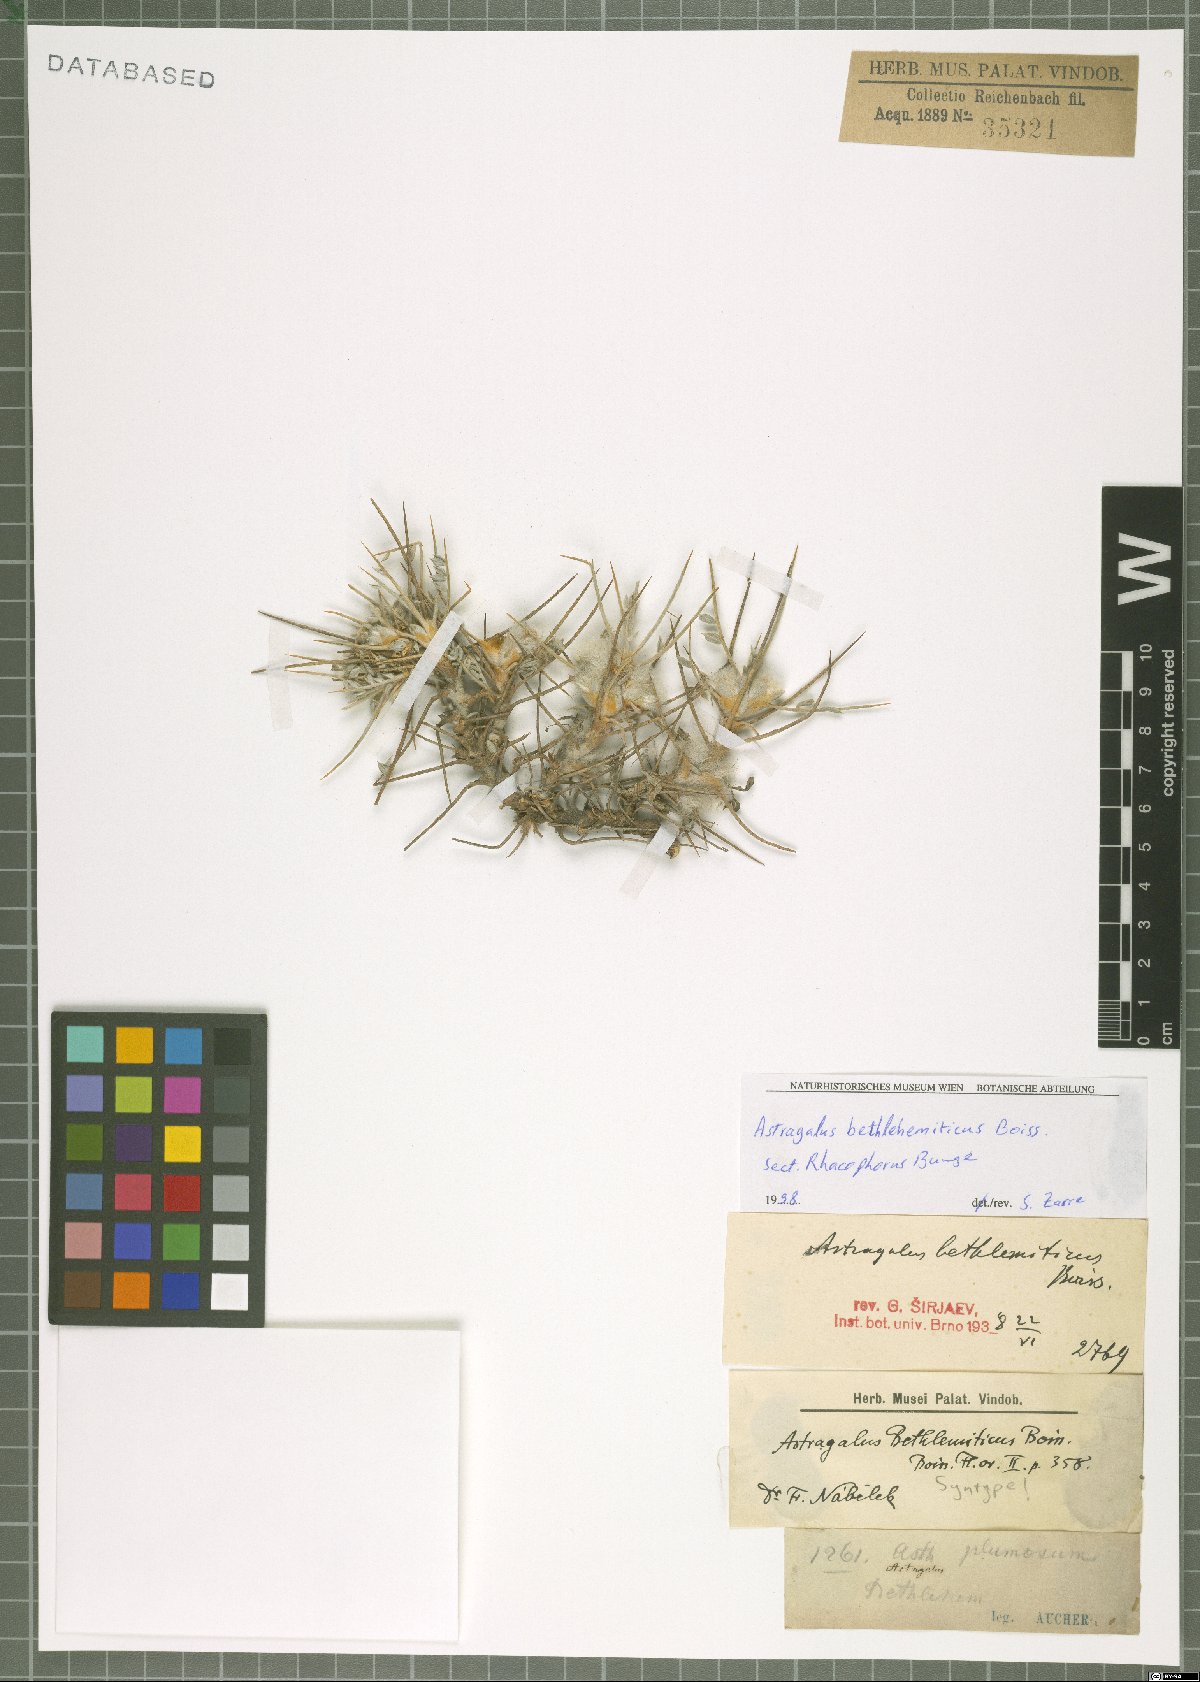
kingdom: Plantae
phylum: Tracheophyta
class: Magnoliopsida
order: Fabales
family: Fabaceae
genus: Astragalus
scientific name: Astragalus bethlehemiticus
